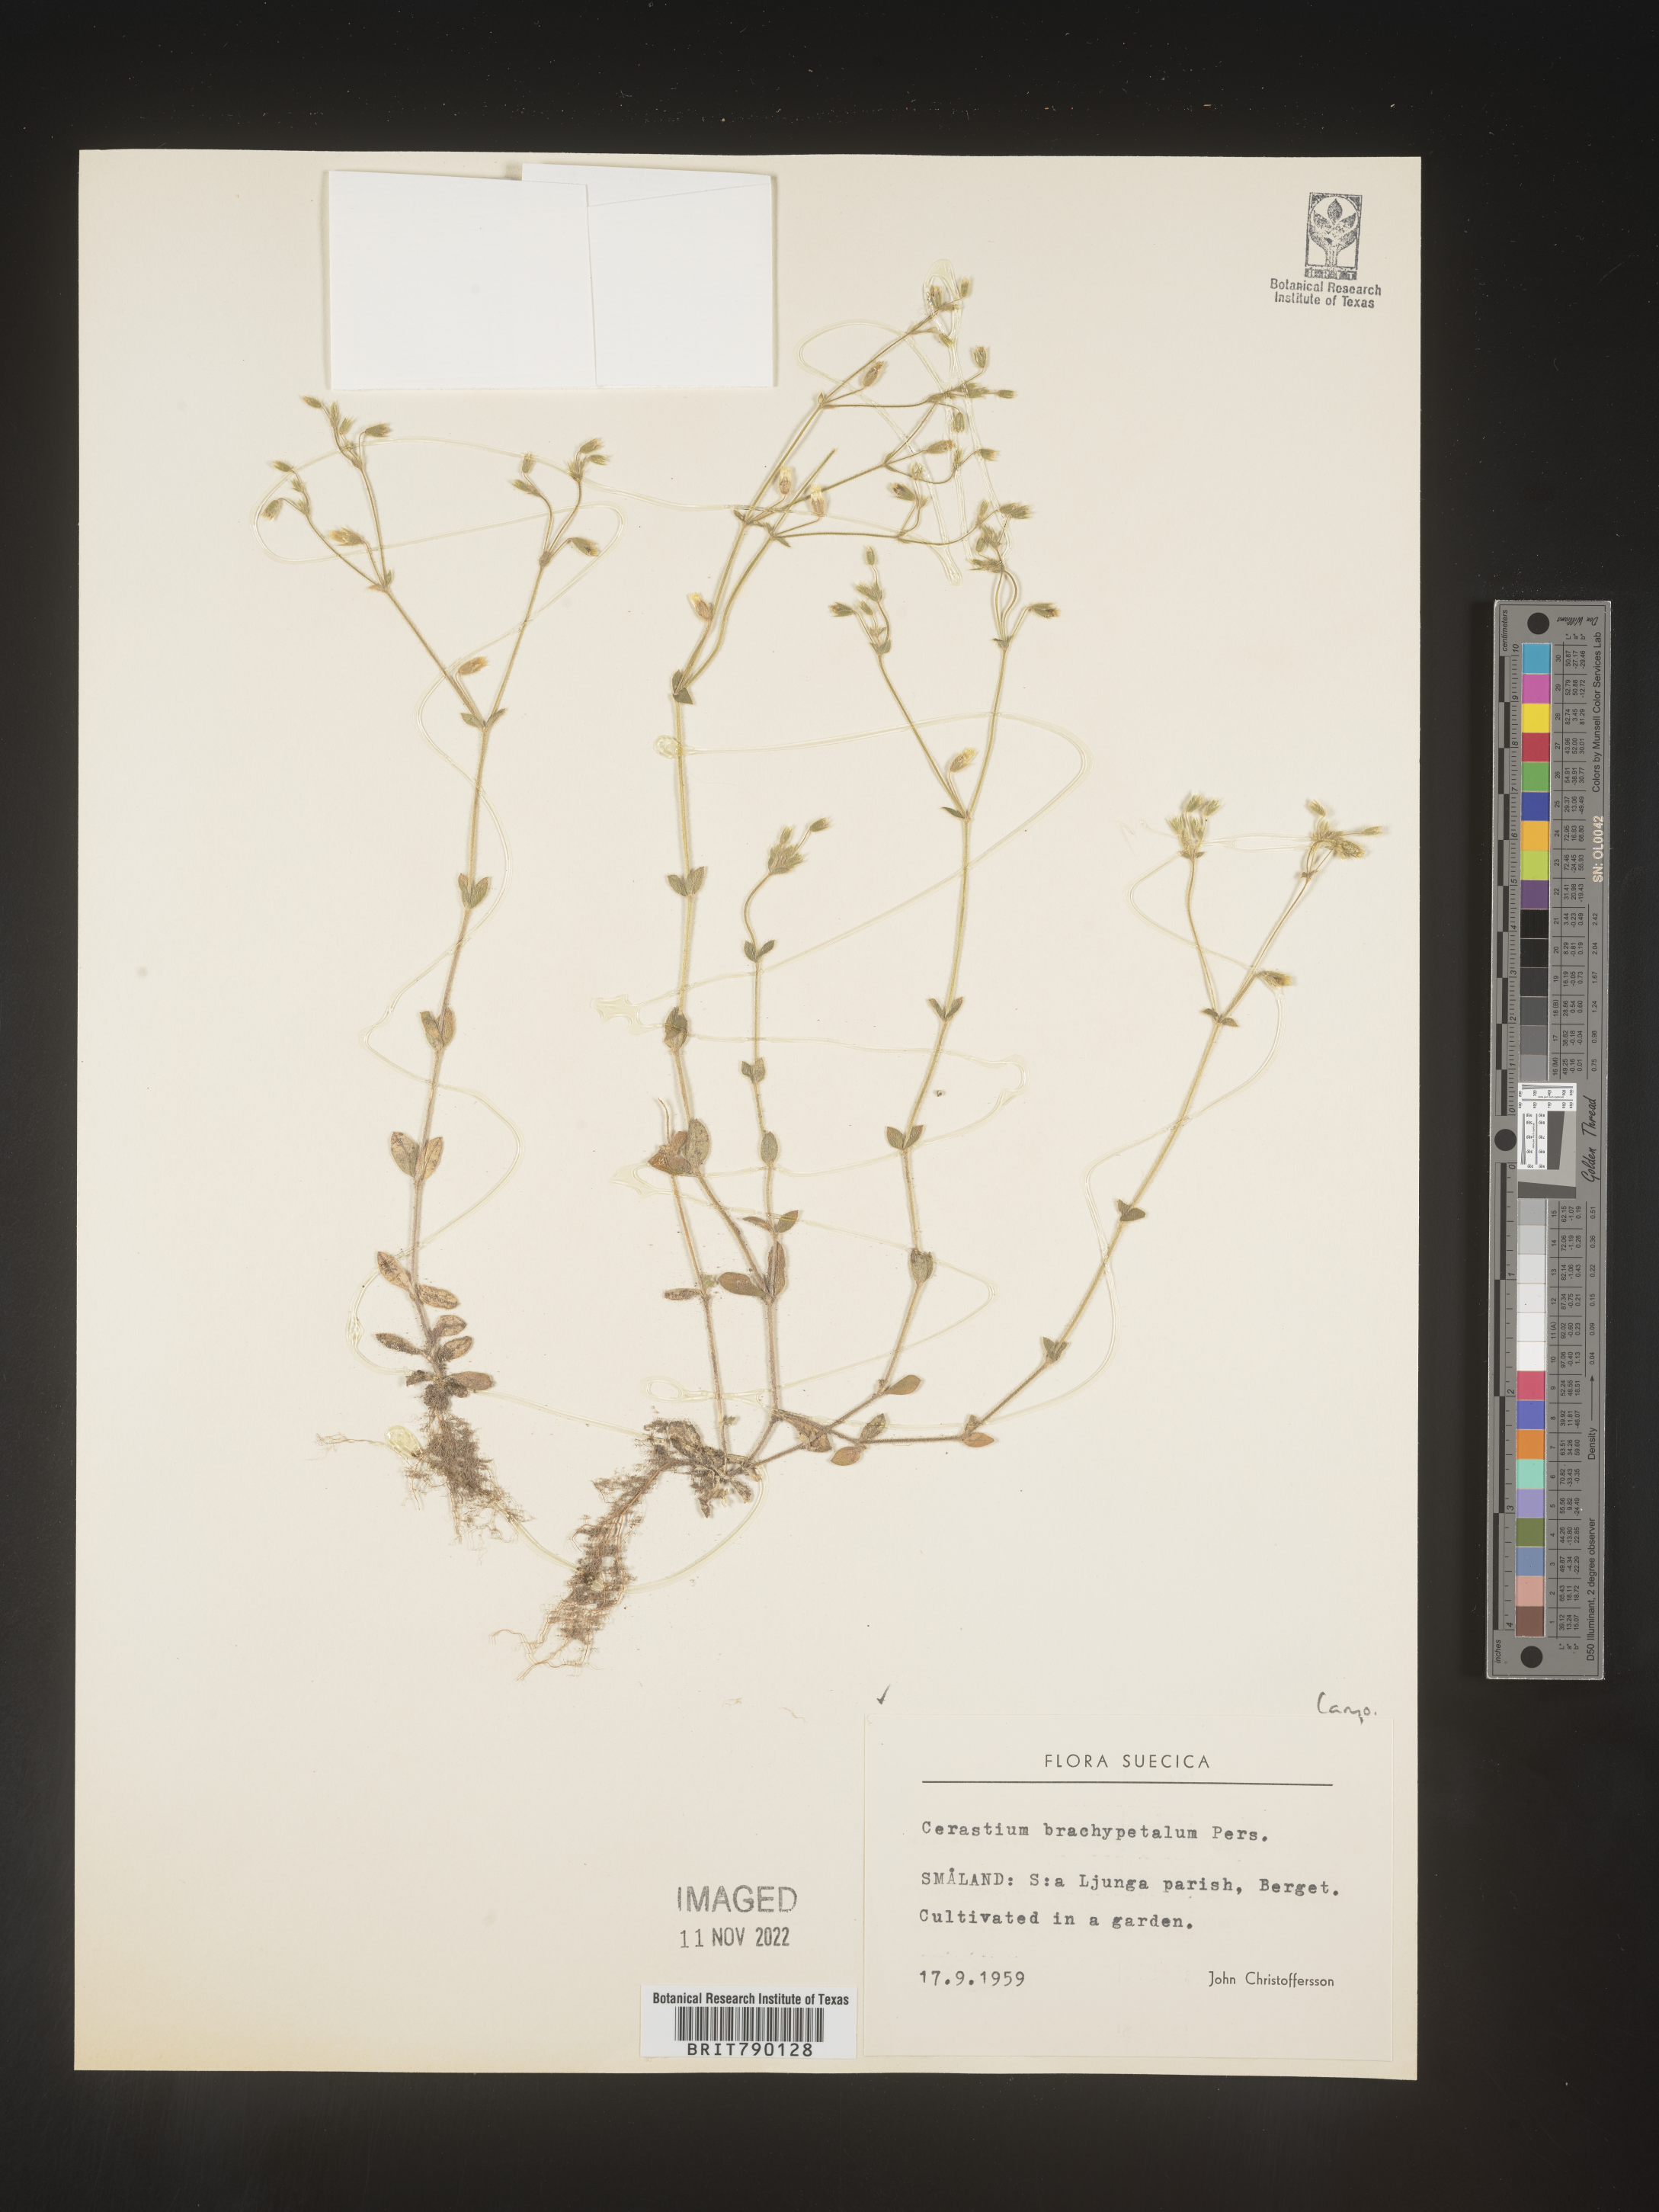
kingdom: Plantae
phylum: Tracheophyta
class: Magnoliopsida
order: Caryophyllales
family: Caryophyllaceae
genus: Cerastium
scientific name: Cerastium
